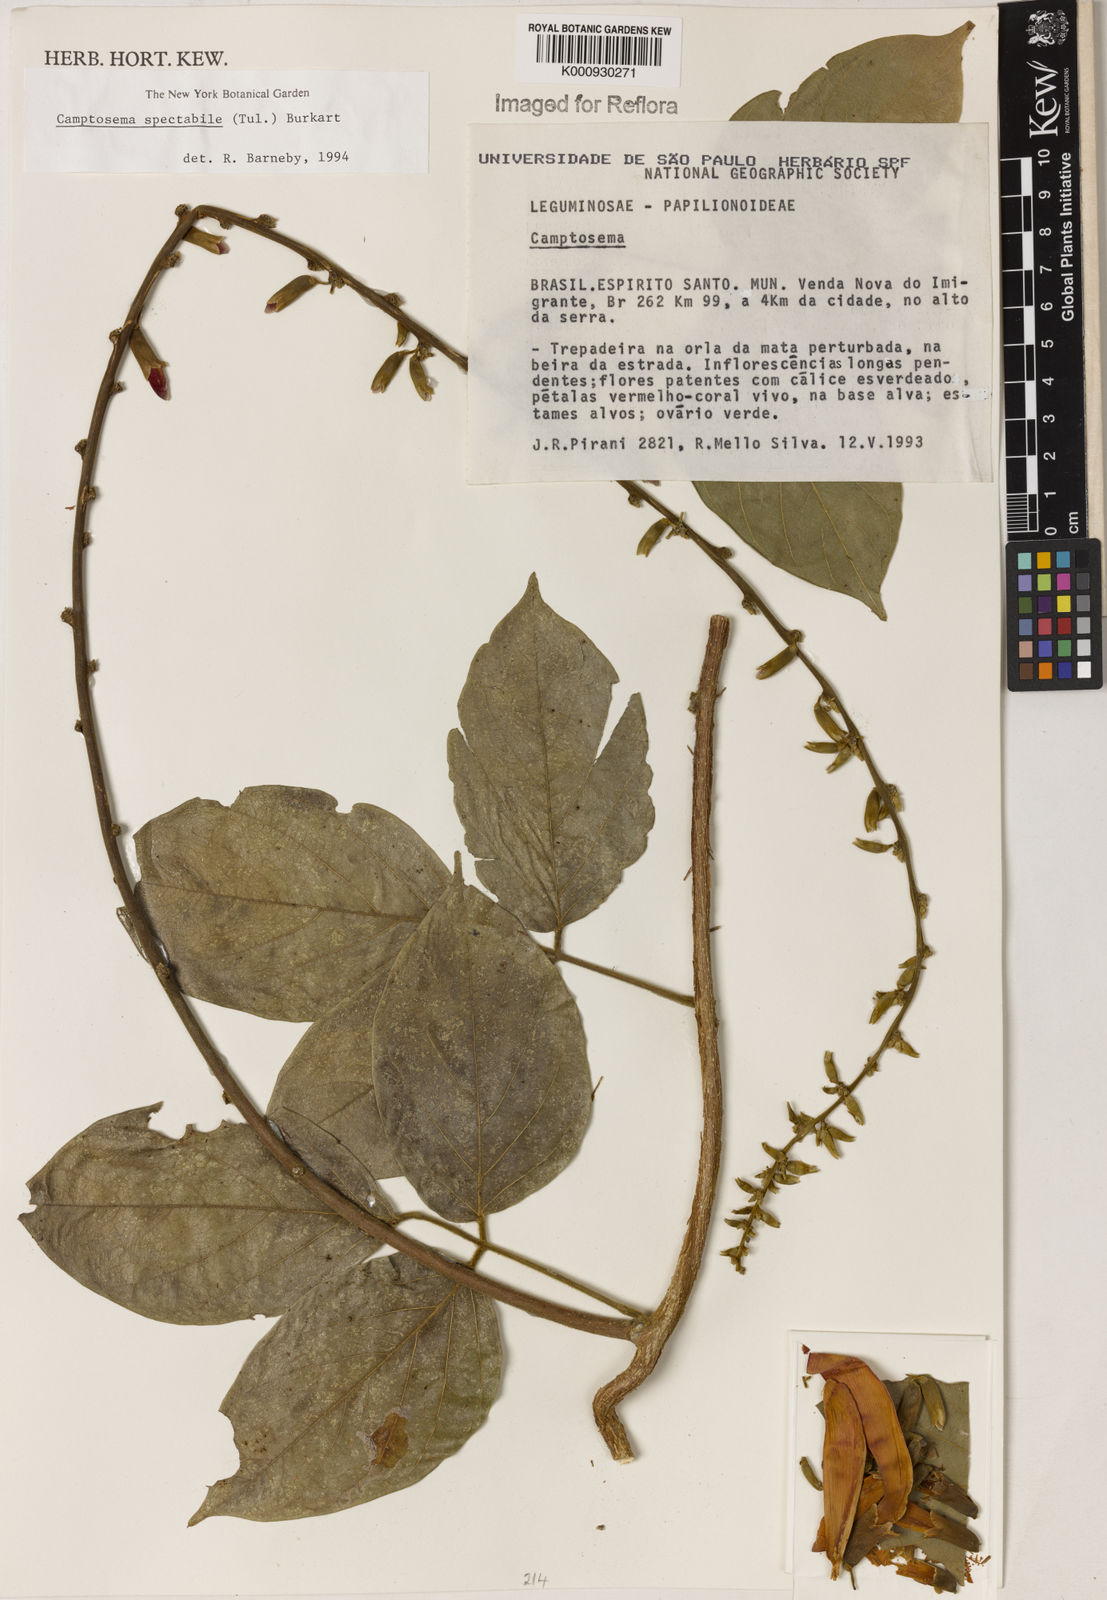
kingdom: Plantae
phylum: Tracheophyta
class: Magnoliopsida
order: Fabales
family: Fabaceae
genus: Camptosema
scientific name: Camptosema spectabile
